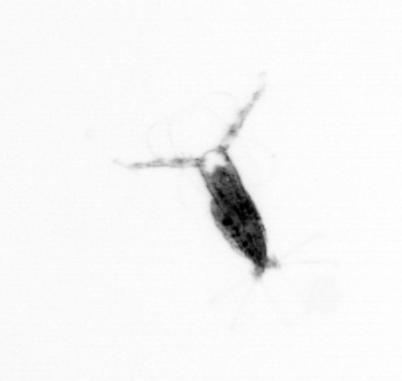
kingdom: Animalia
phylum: Arthropoda
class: Copepoda
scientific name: Copepoda
